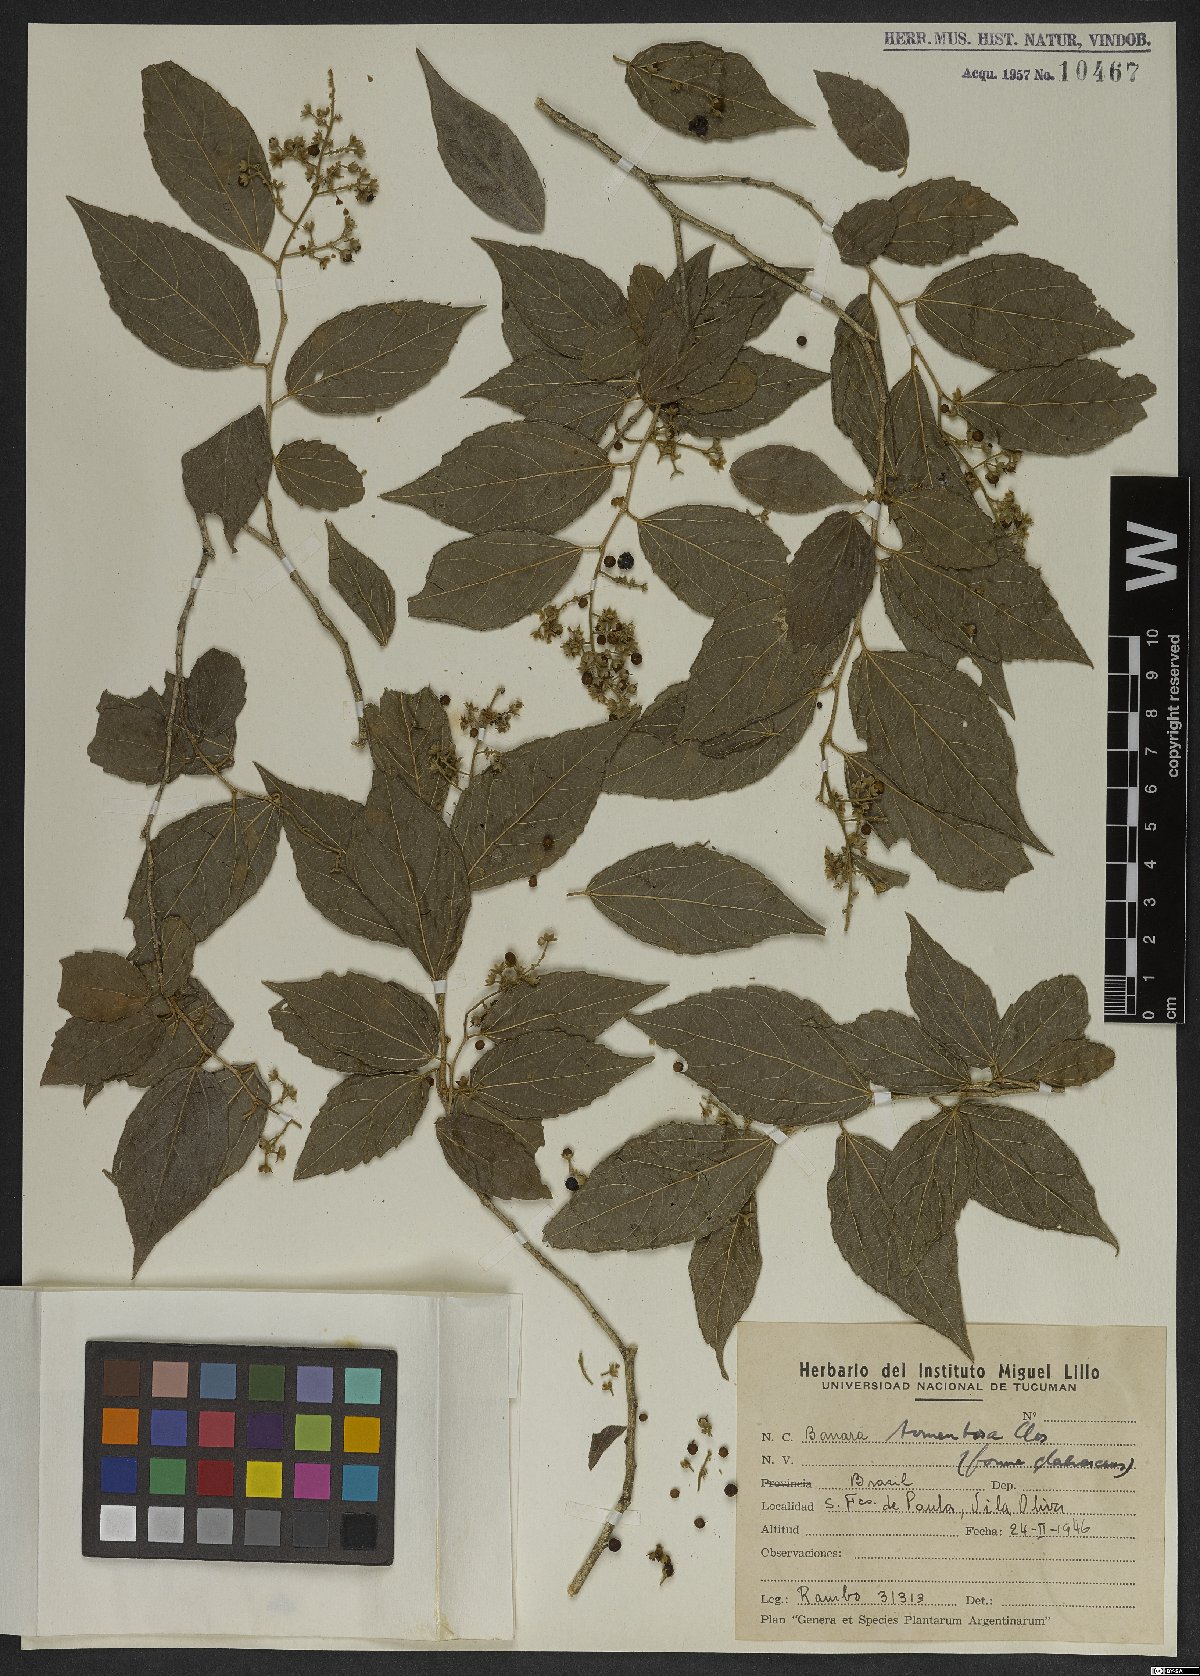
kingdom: Plantae
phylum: Tracheophyta
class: Magnoliopsida
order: Malpighiales
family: Salicaceae
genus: Banara
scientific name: Banara tomentosa
